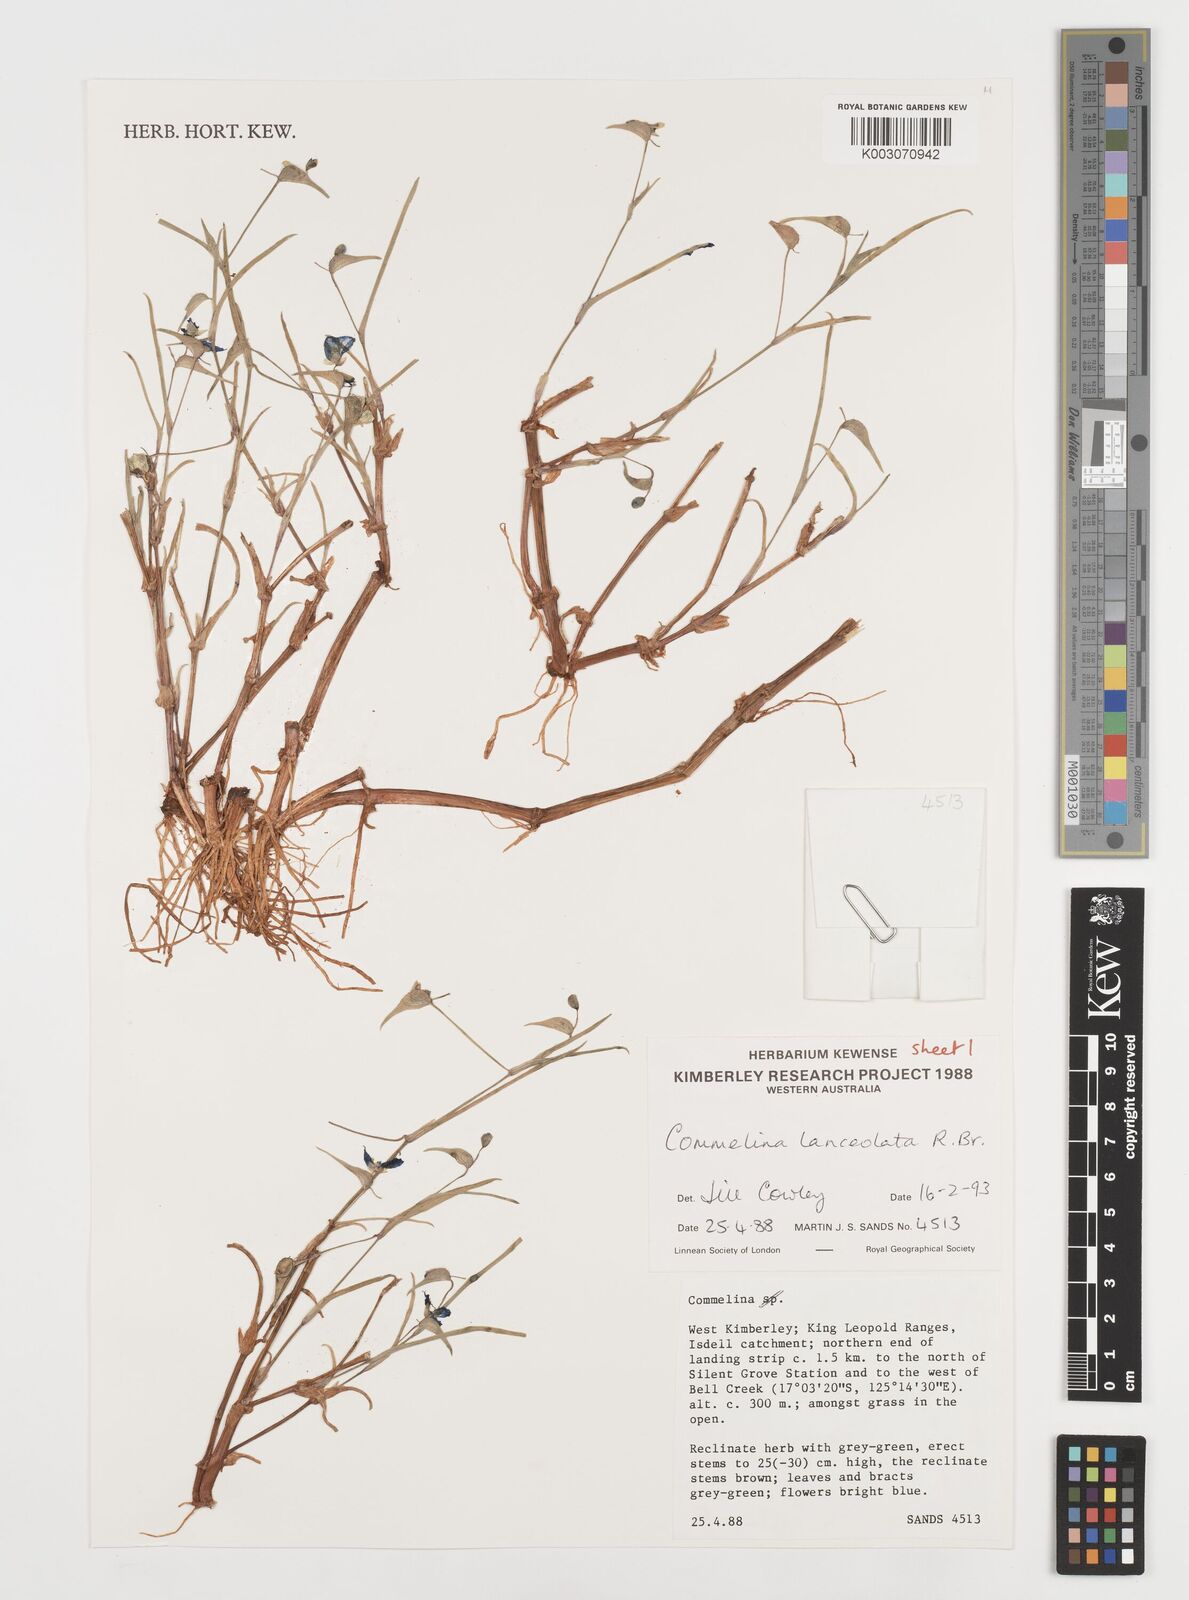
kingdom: Plantae
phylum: Tracheophyta
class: Liliopsida
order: Commelinales
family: Commelinaceae
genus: Commelina
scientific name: Commelina lanceolata
